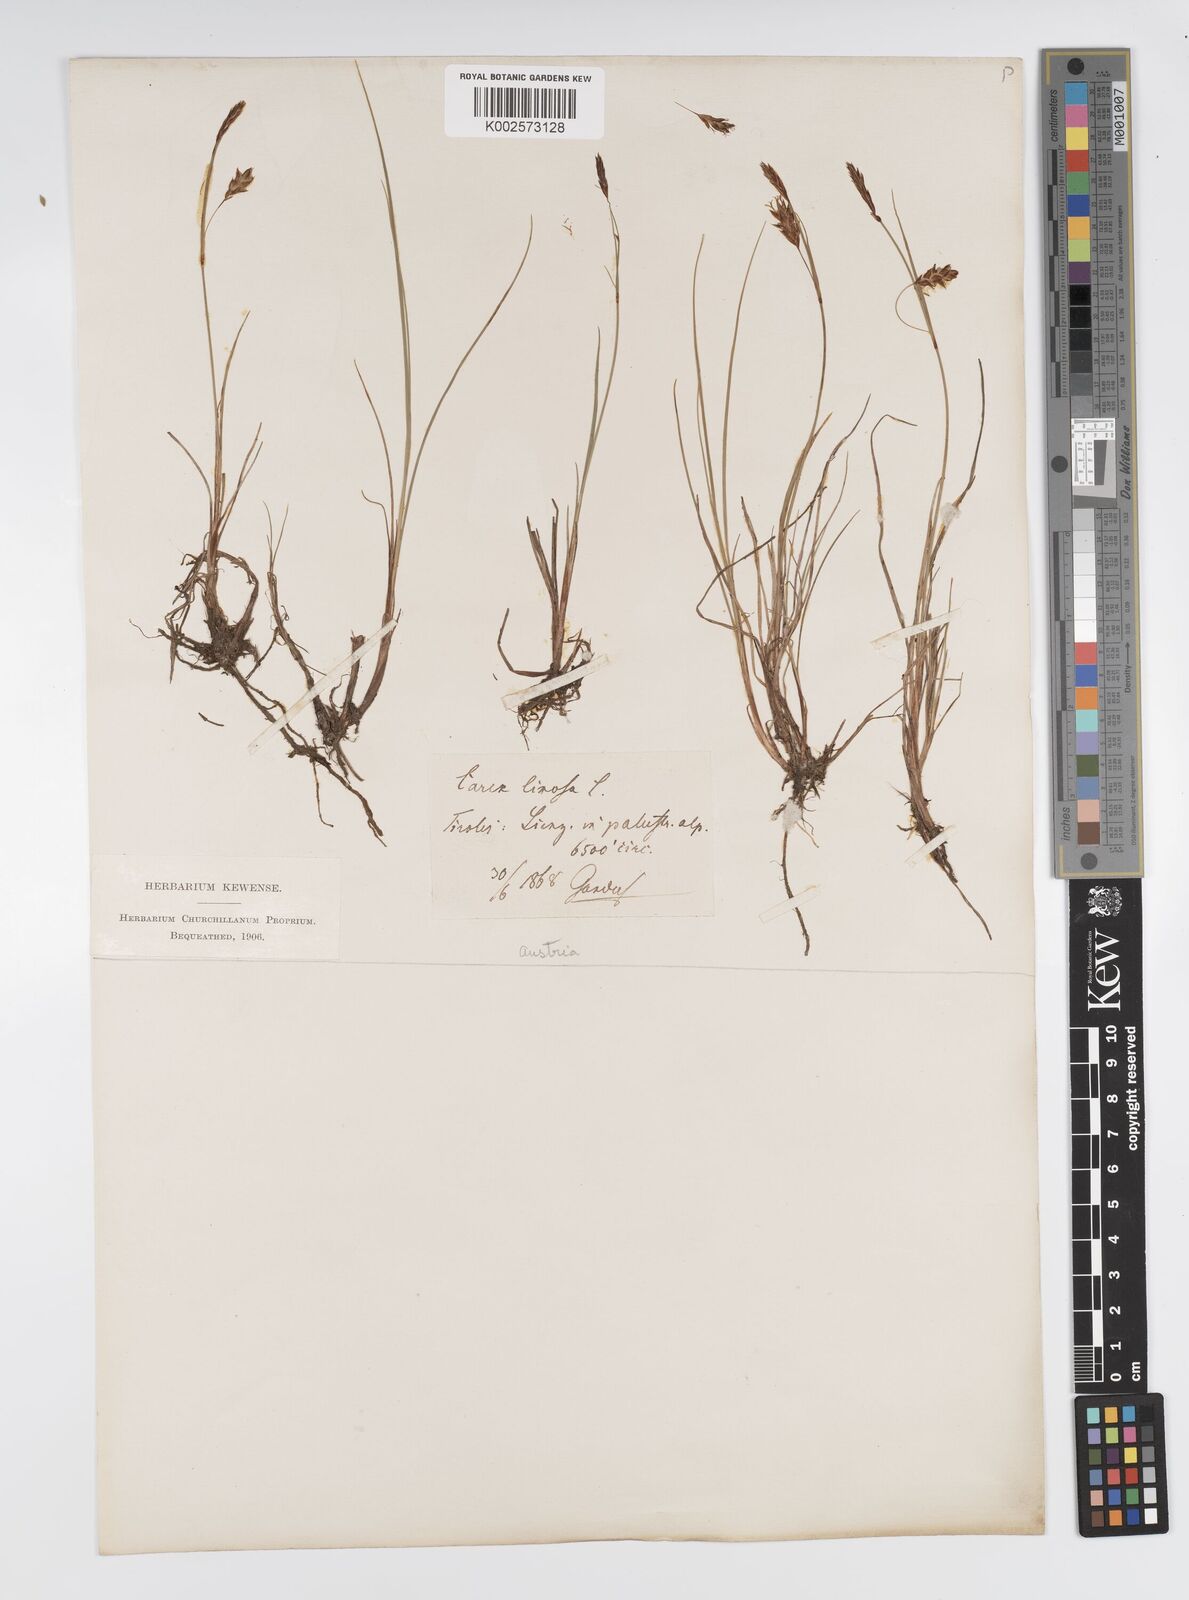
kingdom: Plantae
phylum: Tracheophyta
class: Liliopsida
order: Poales
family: Cyperaceae
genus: Carex
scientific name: Carex limosa
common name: Bog sedge
